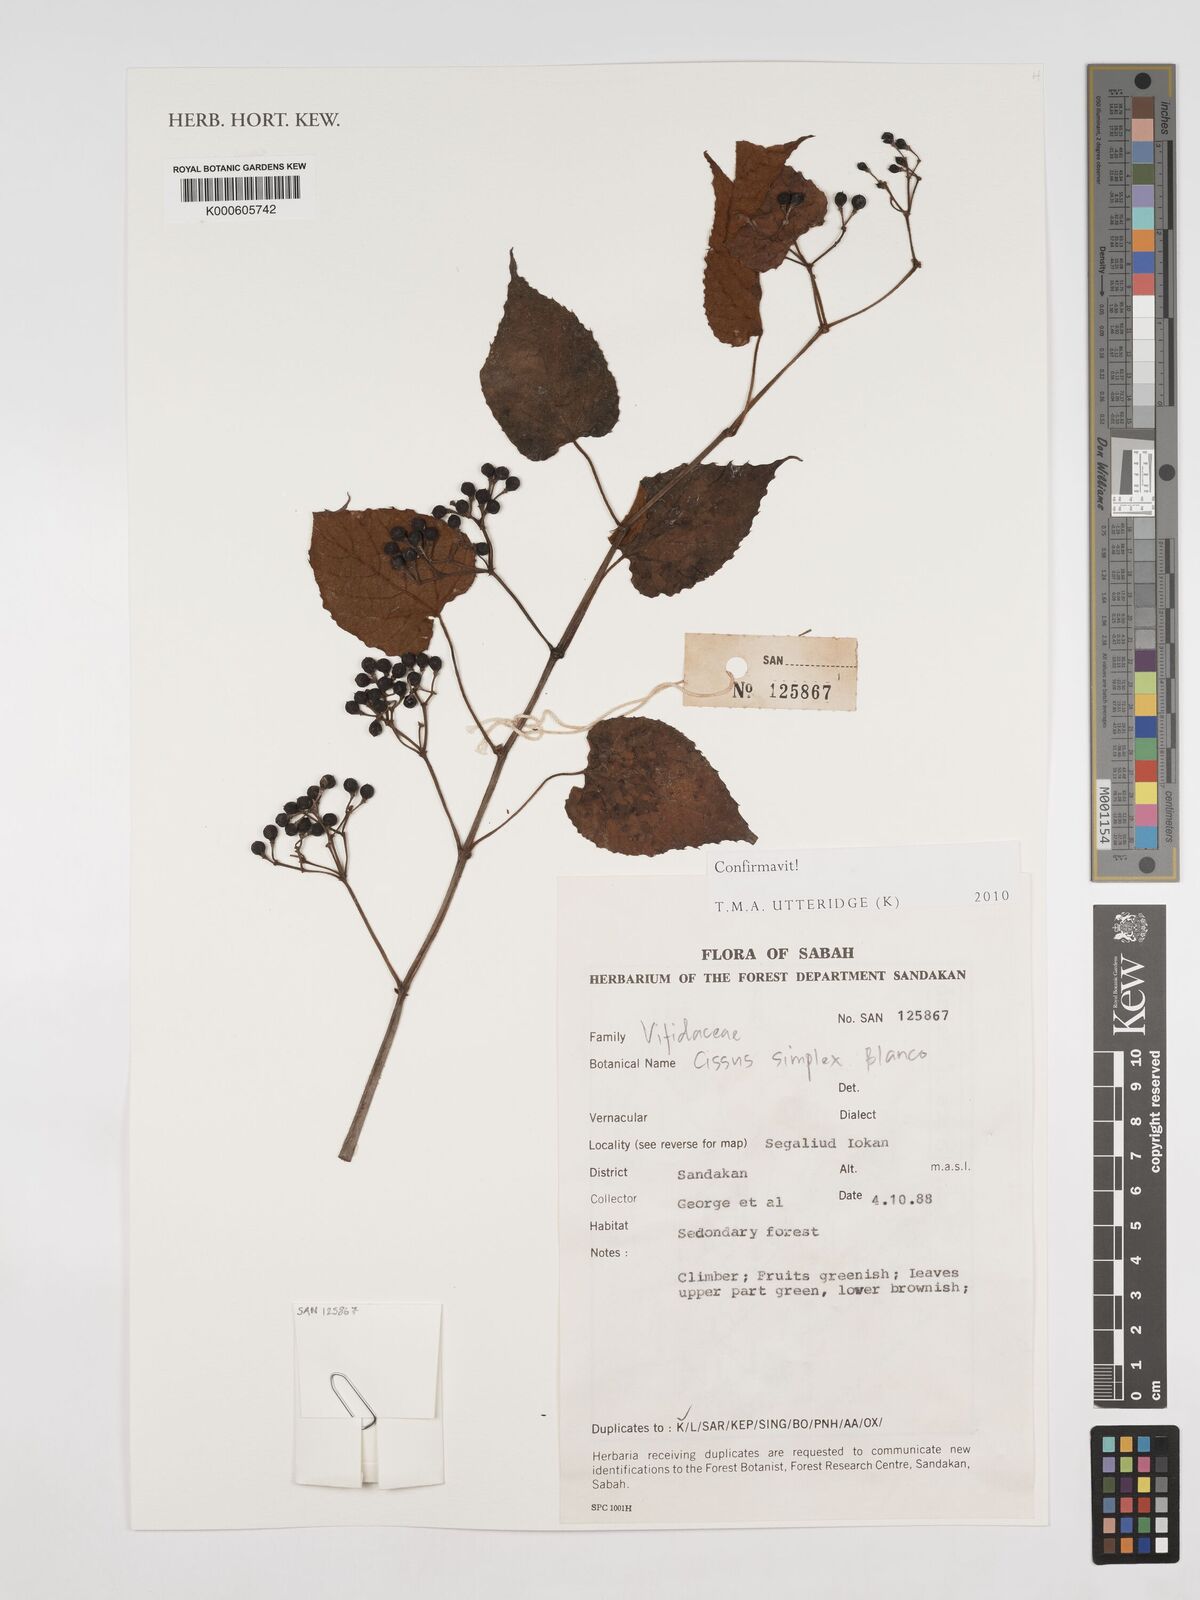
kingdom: Plantae
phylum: Tracheophyta
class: Magnoliopsida
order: Vitales
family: Vitaceae
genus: Cissus
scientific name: Cissus aristata
